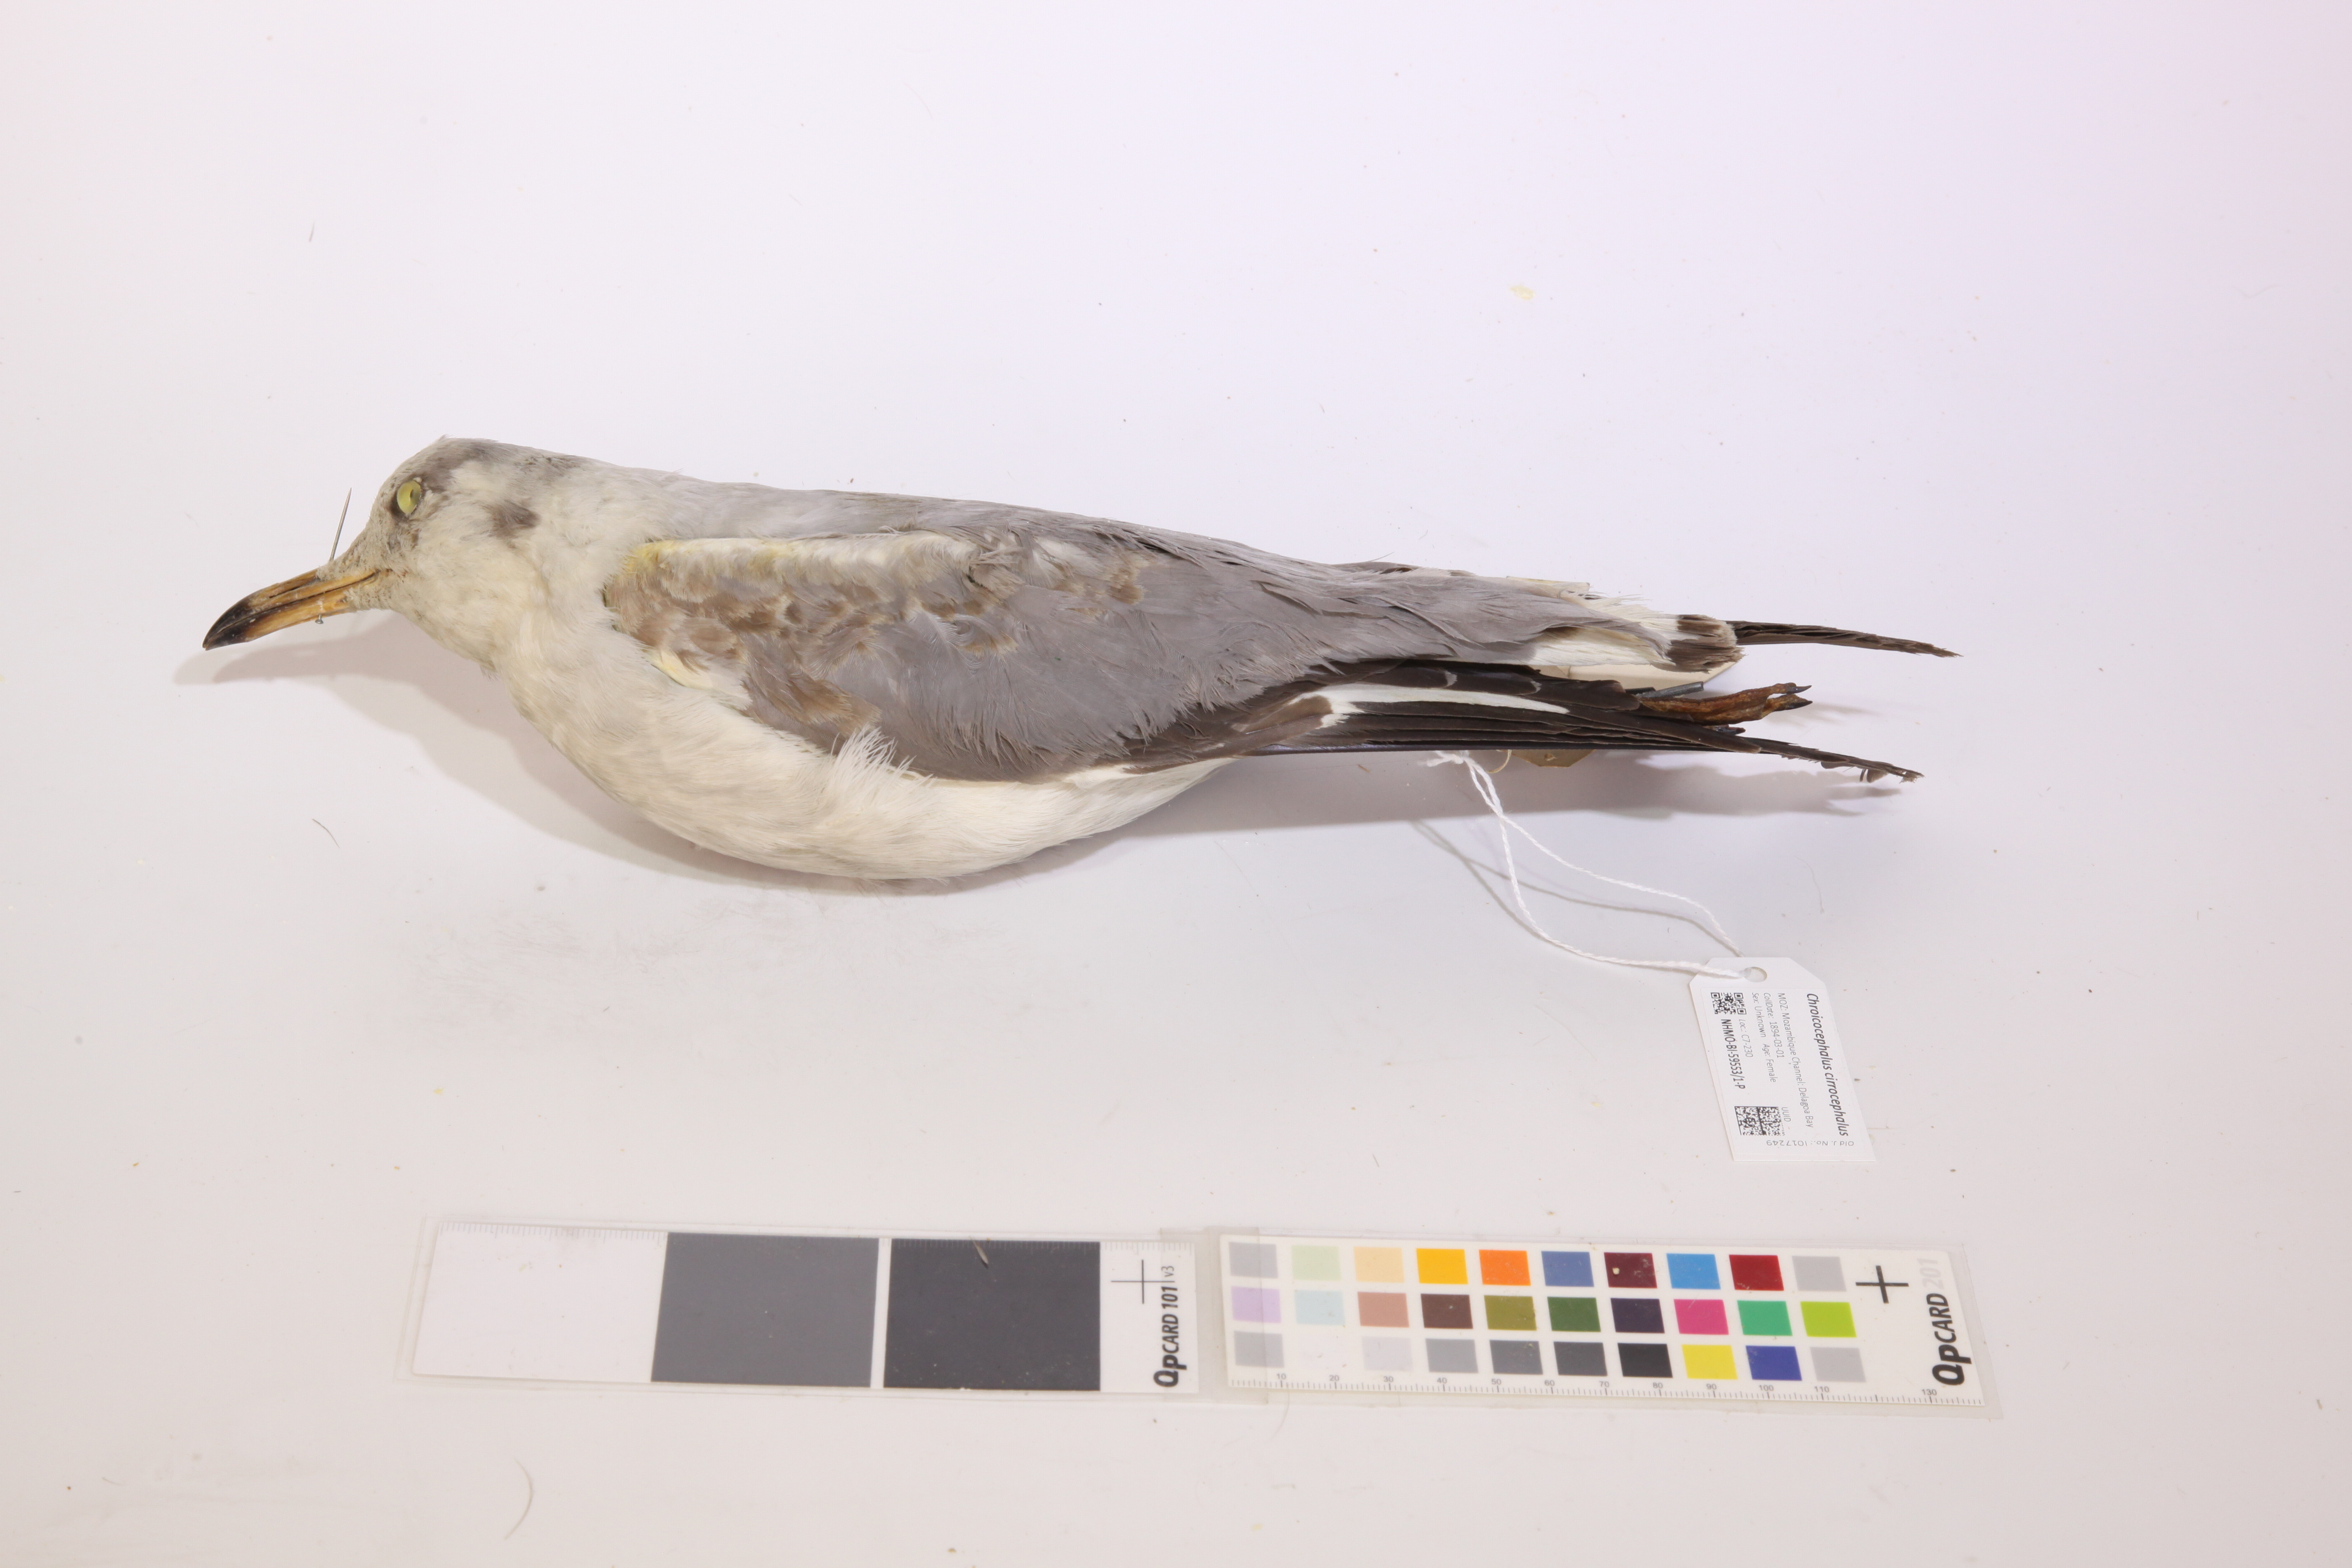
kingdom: Animalia
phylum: Chordata
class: Aves
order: Charadriiformes
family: Laridae
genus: Chroicocephalus
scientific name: Chroicocephalus cirrocephalus
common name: Grey-headed gull
